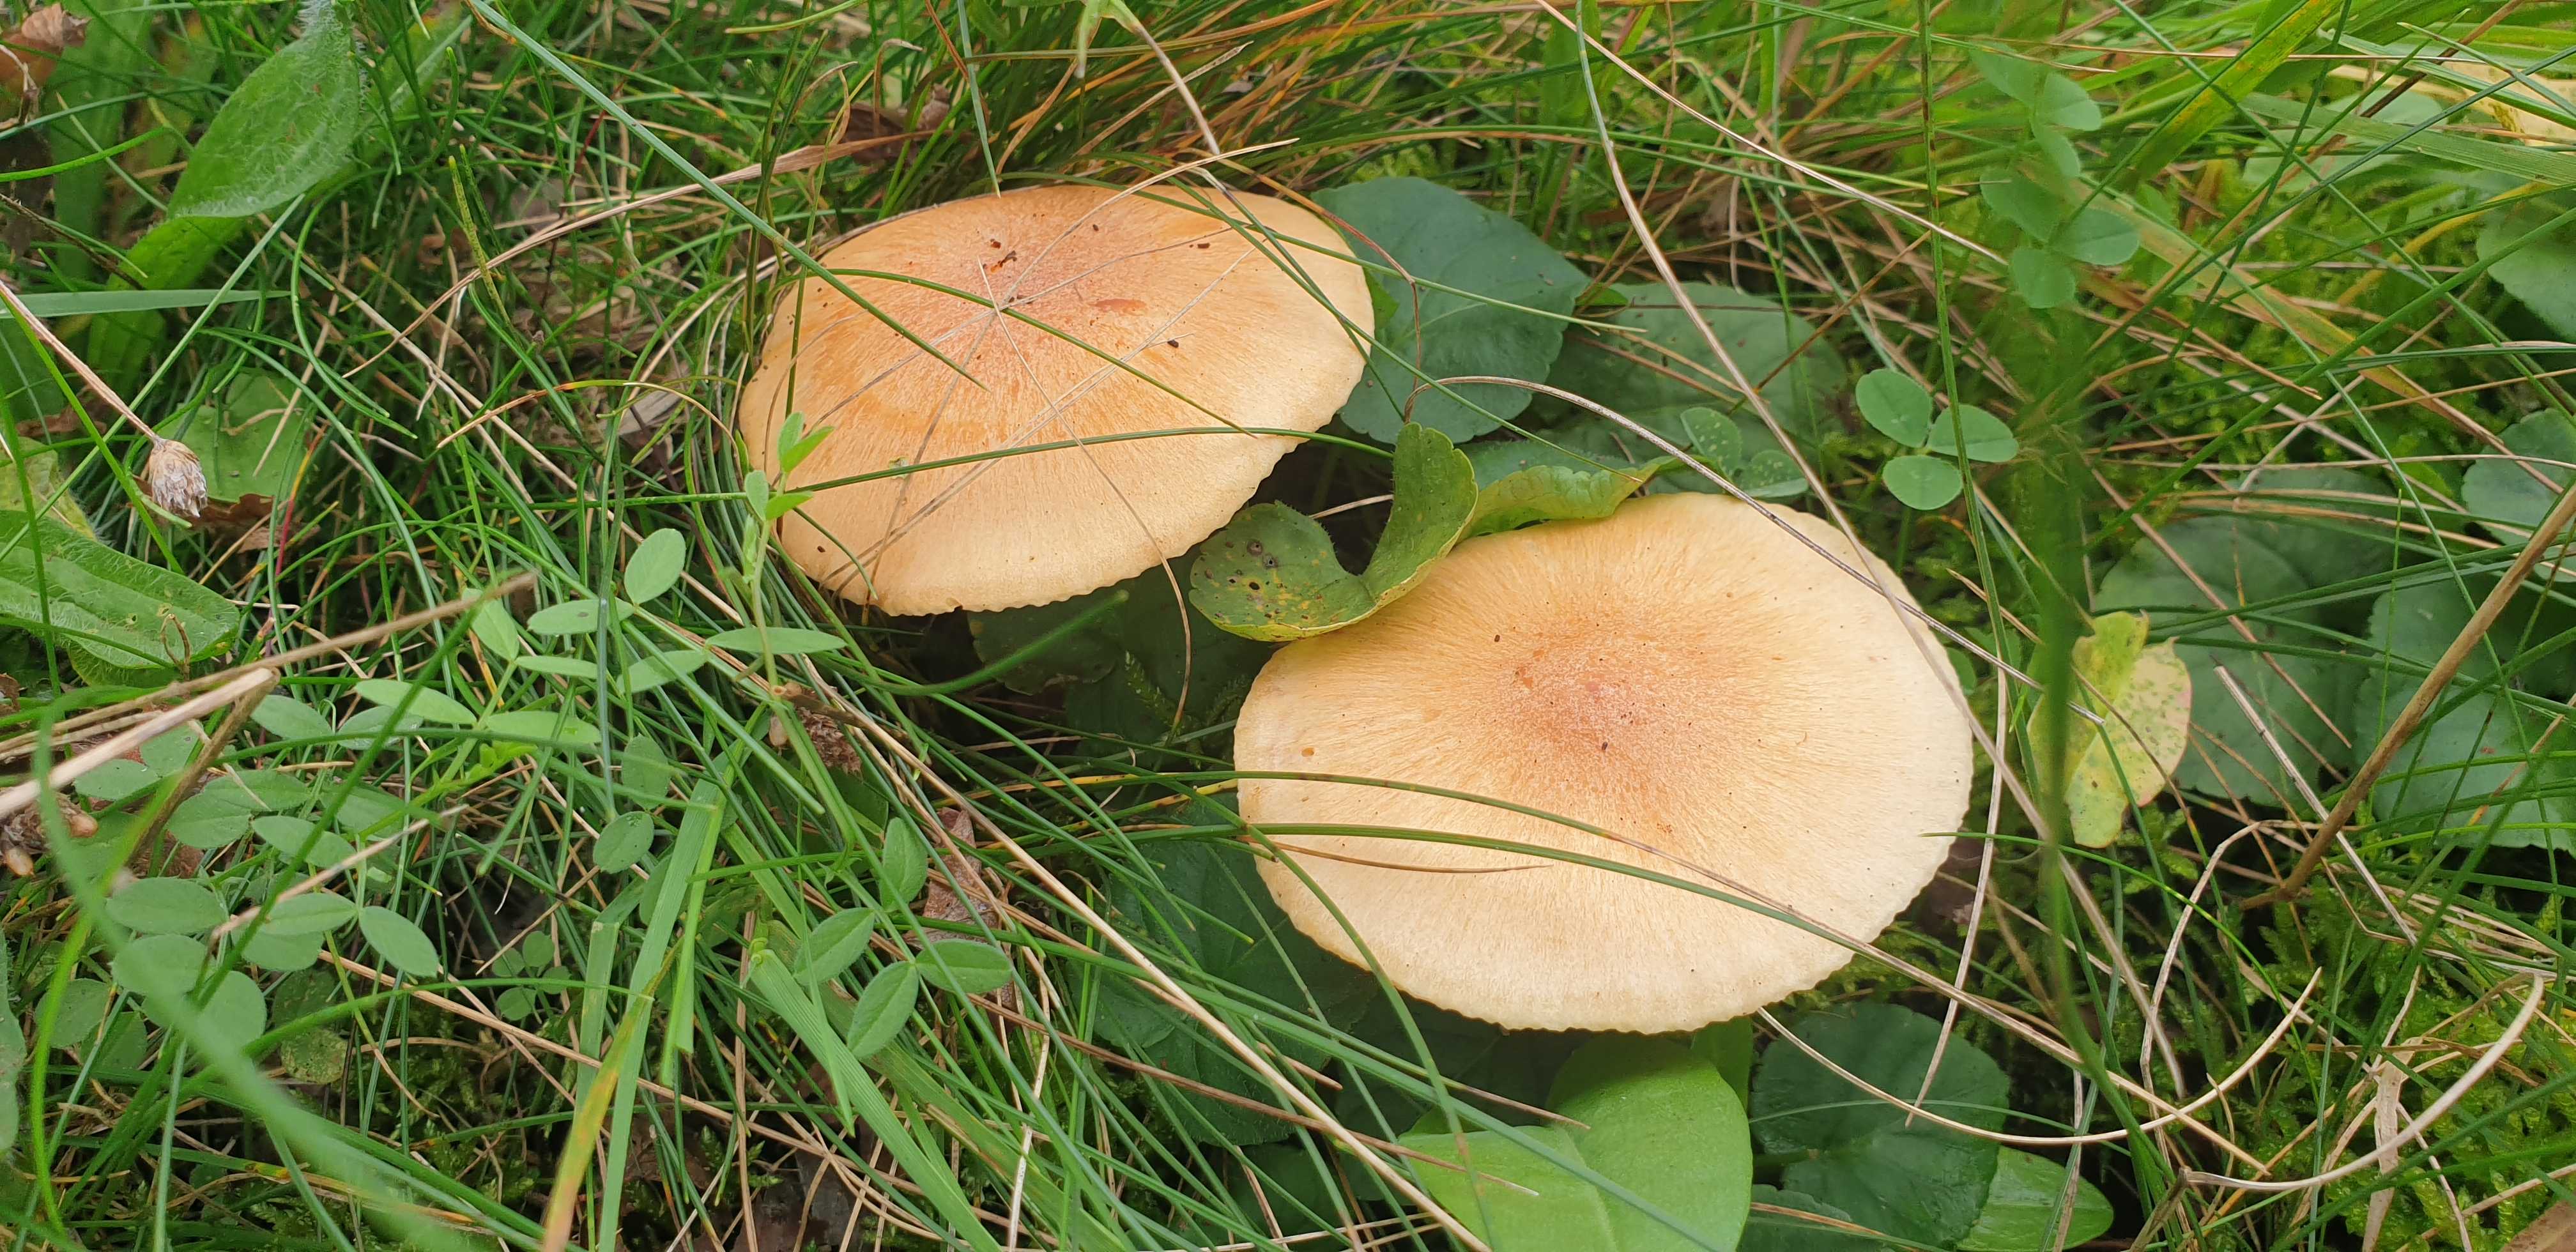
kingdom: Fungi
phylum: Basidiomycota
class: Agaricomycetes
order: Agaricales
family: Hygrophoraceae
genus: Cuphophyllus
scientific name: Cuphophyllus pratensis
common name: eng-vokshat
